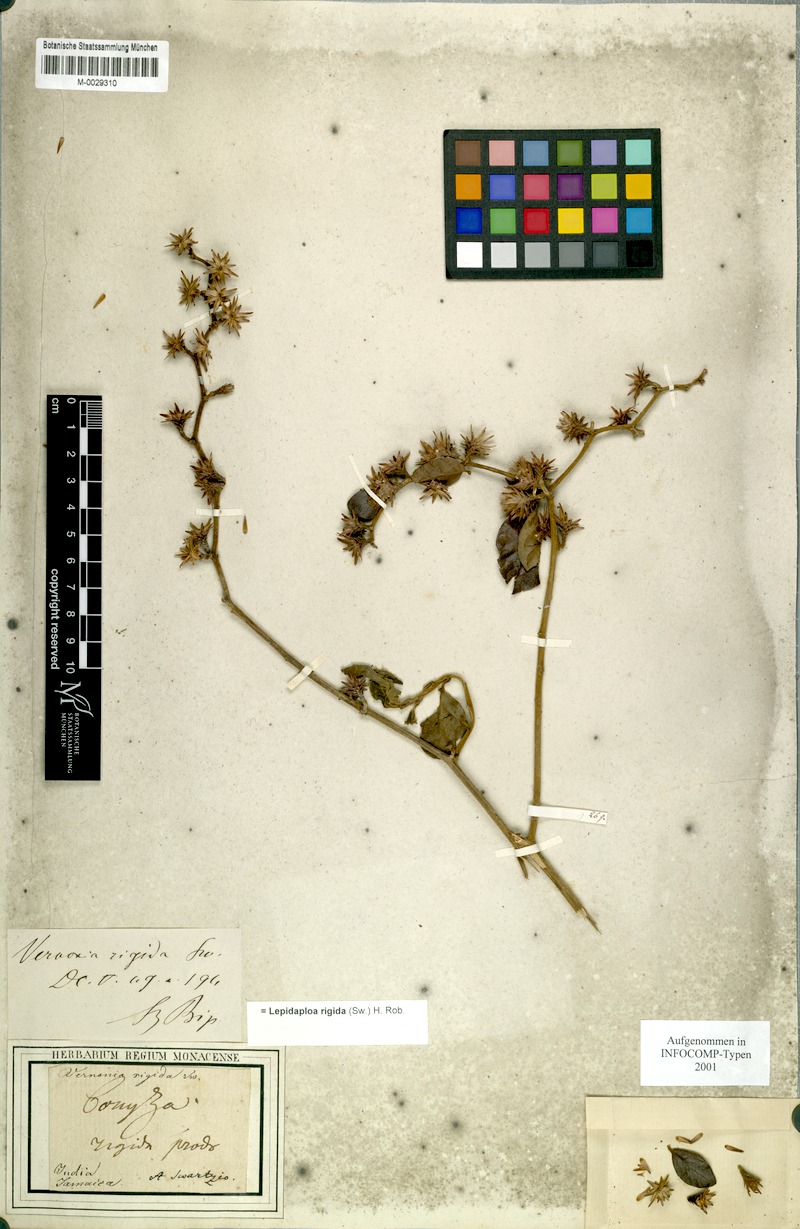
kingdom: Plantae
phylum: Tracheophyta
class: Magnoliopsida
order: Asterales
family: Asteraceae
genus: Lepidaploa
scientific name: Lepidaploa rigida
